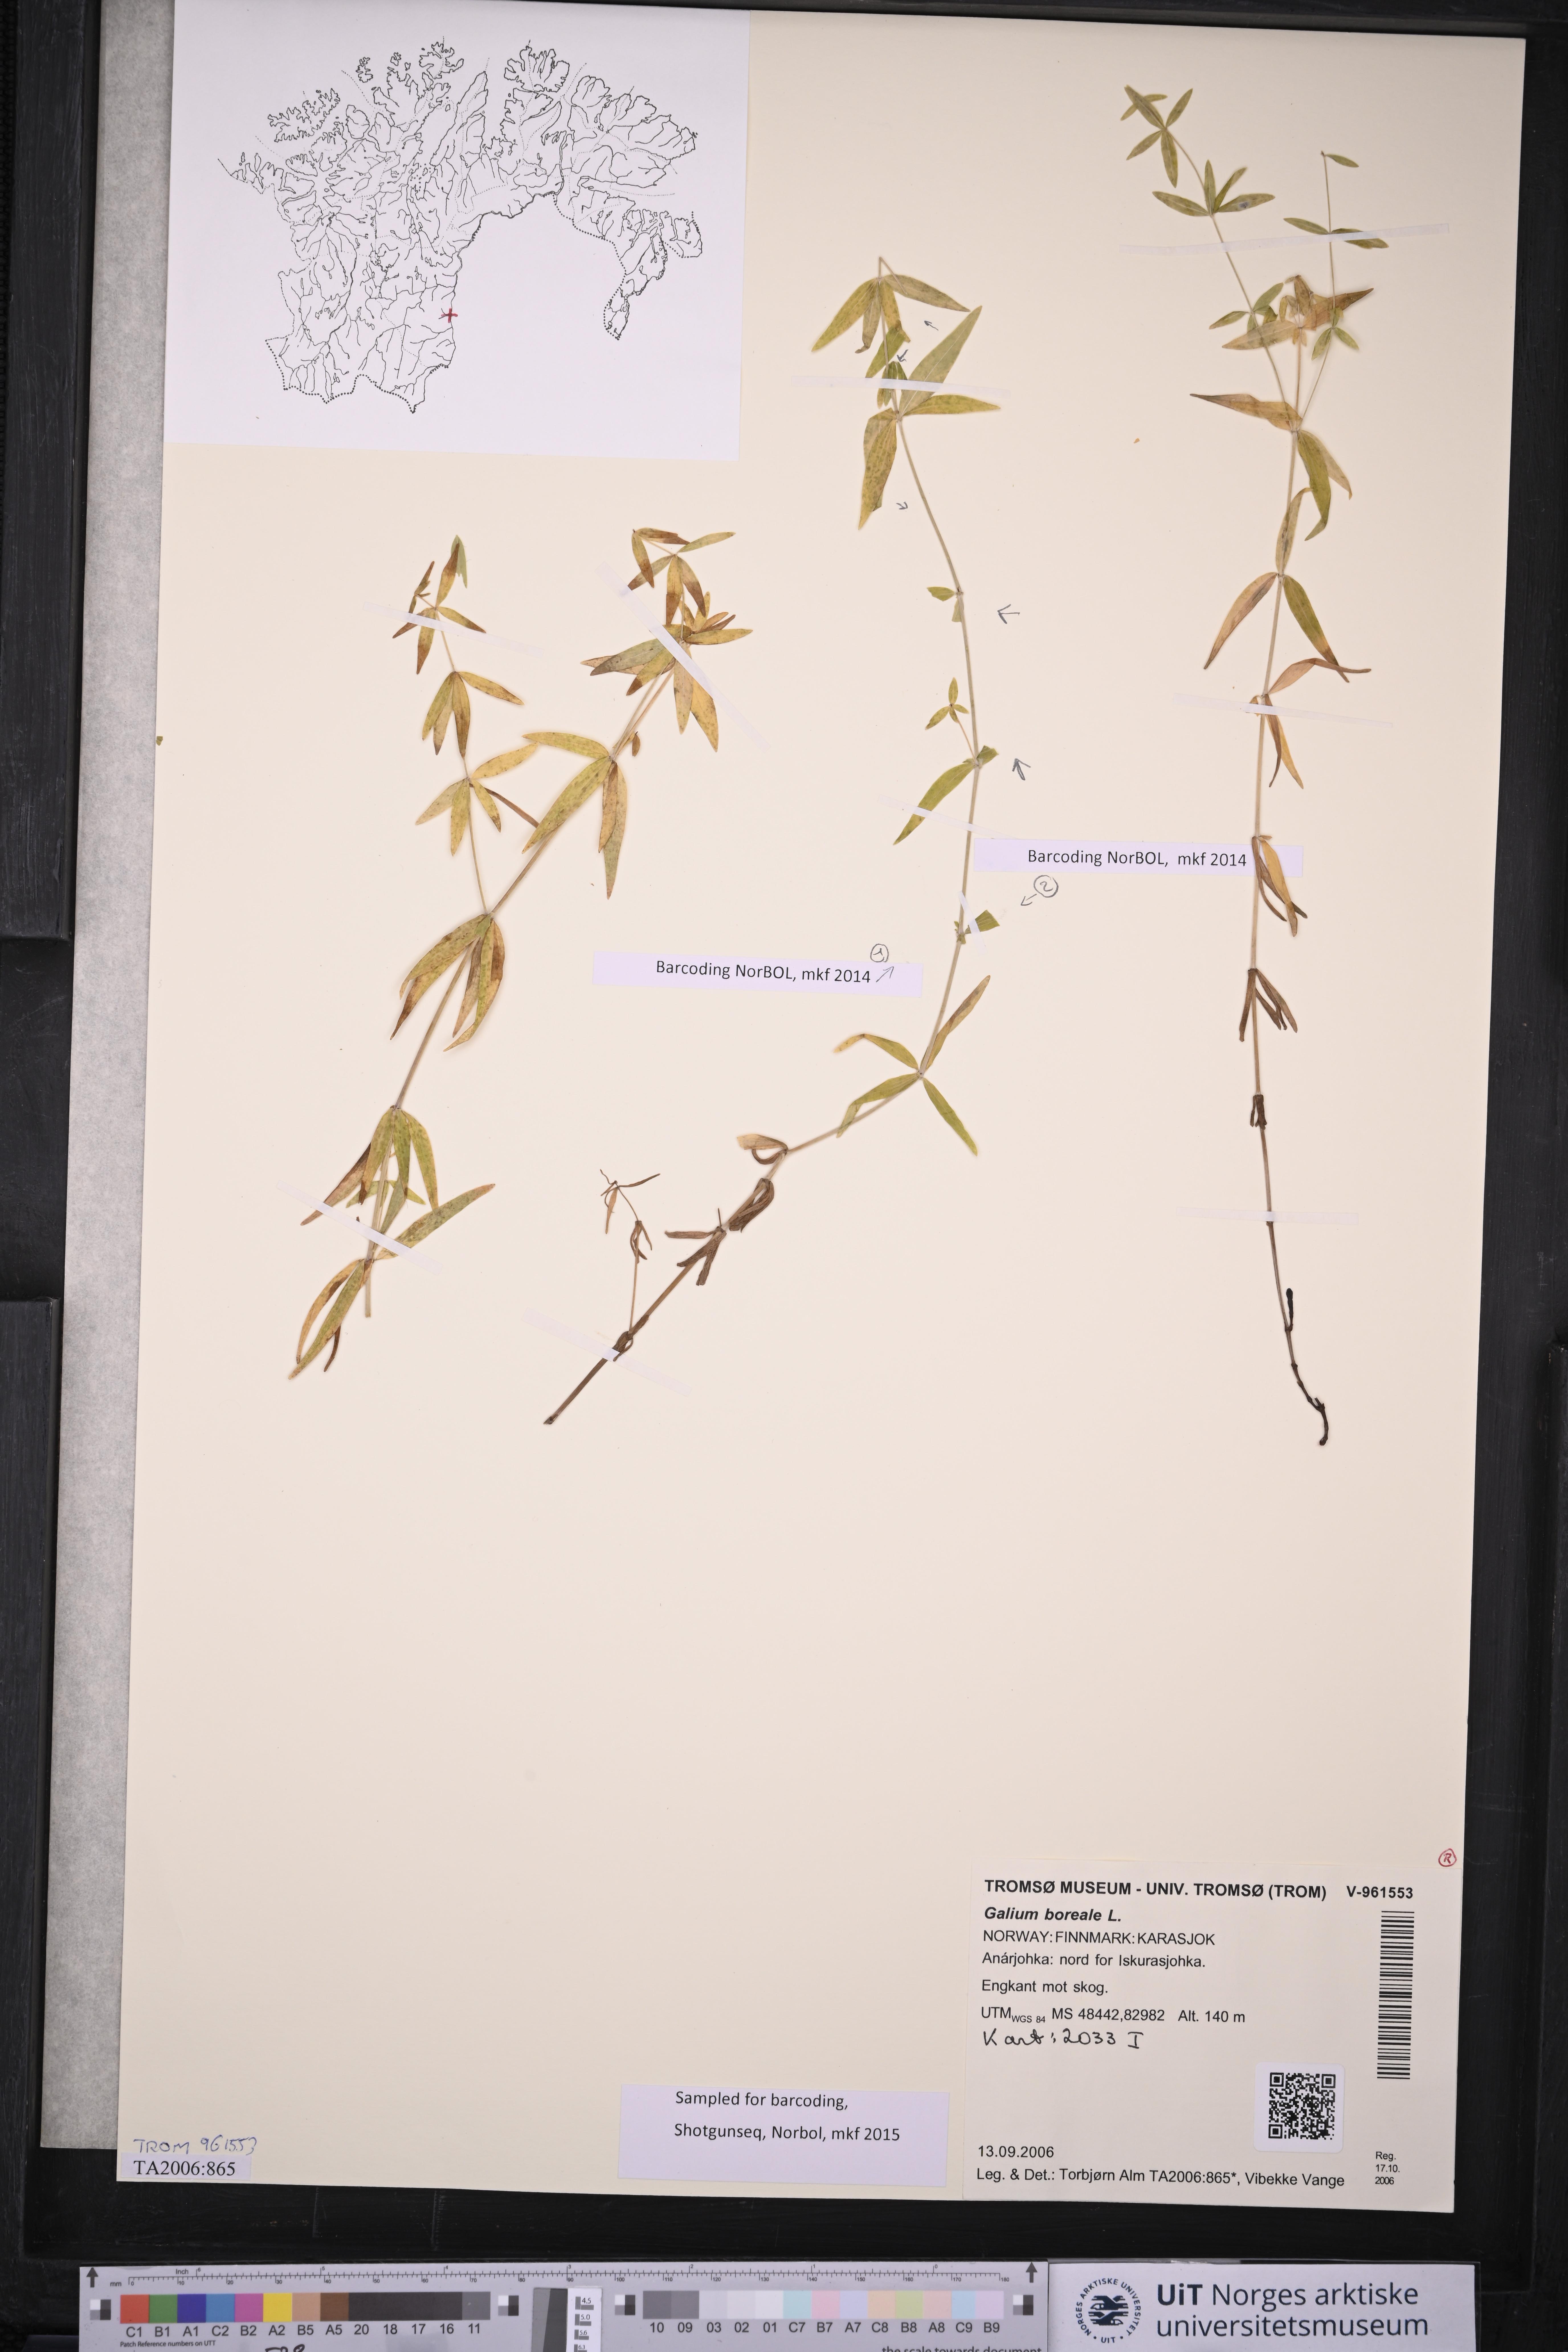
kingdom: Plantae
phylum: Tracheophyta
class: Magnoliopsida
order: Gentianales
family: Rubiaceae
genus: Galium
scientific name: Galium boreale
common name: Northern bedstraw
